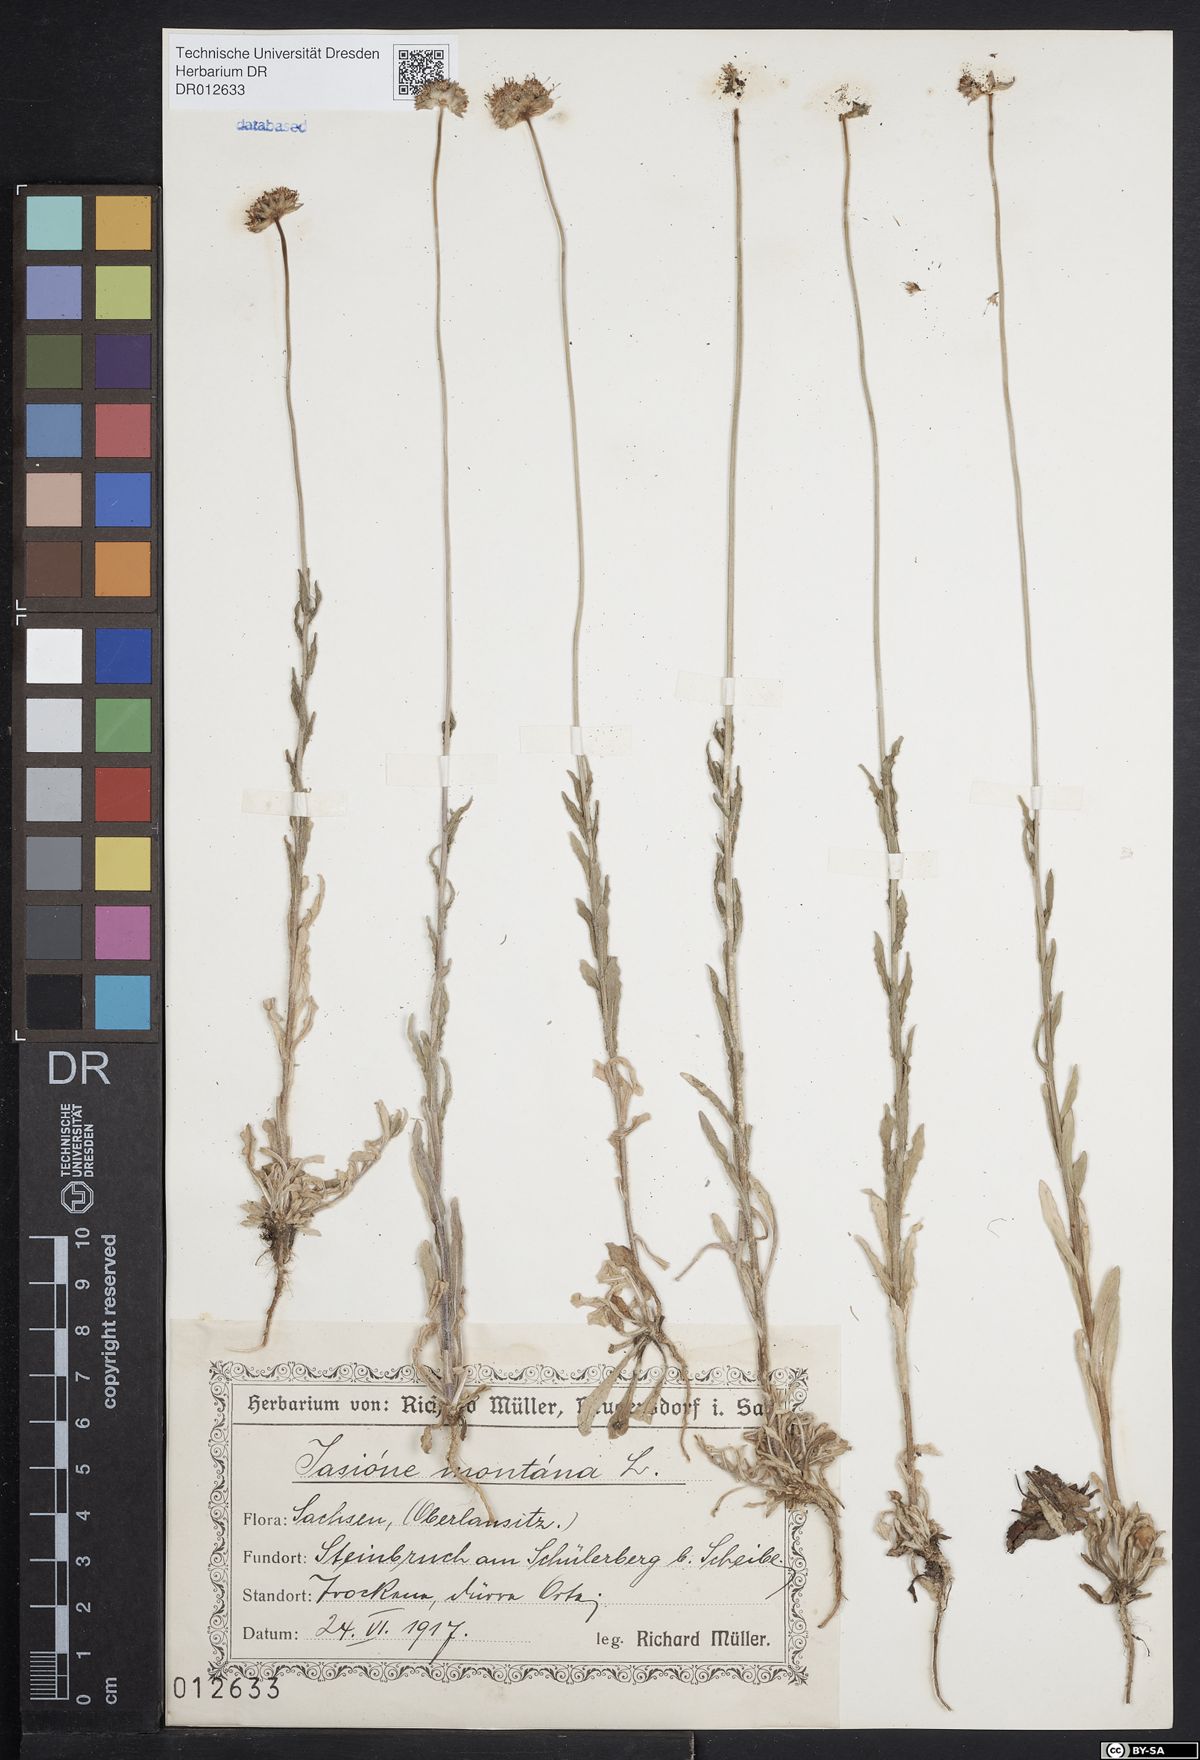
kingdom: Plantae
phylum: Tracheophyta
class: Magnoliopsida
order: Asterales
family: Campanulaceae
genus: Jasione
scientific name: Jasione montana
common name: Sheep's-bit
